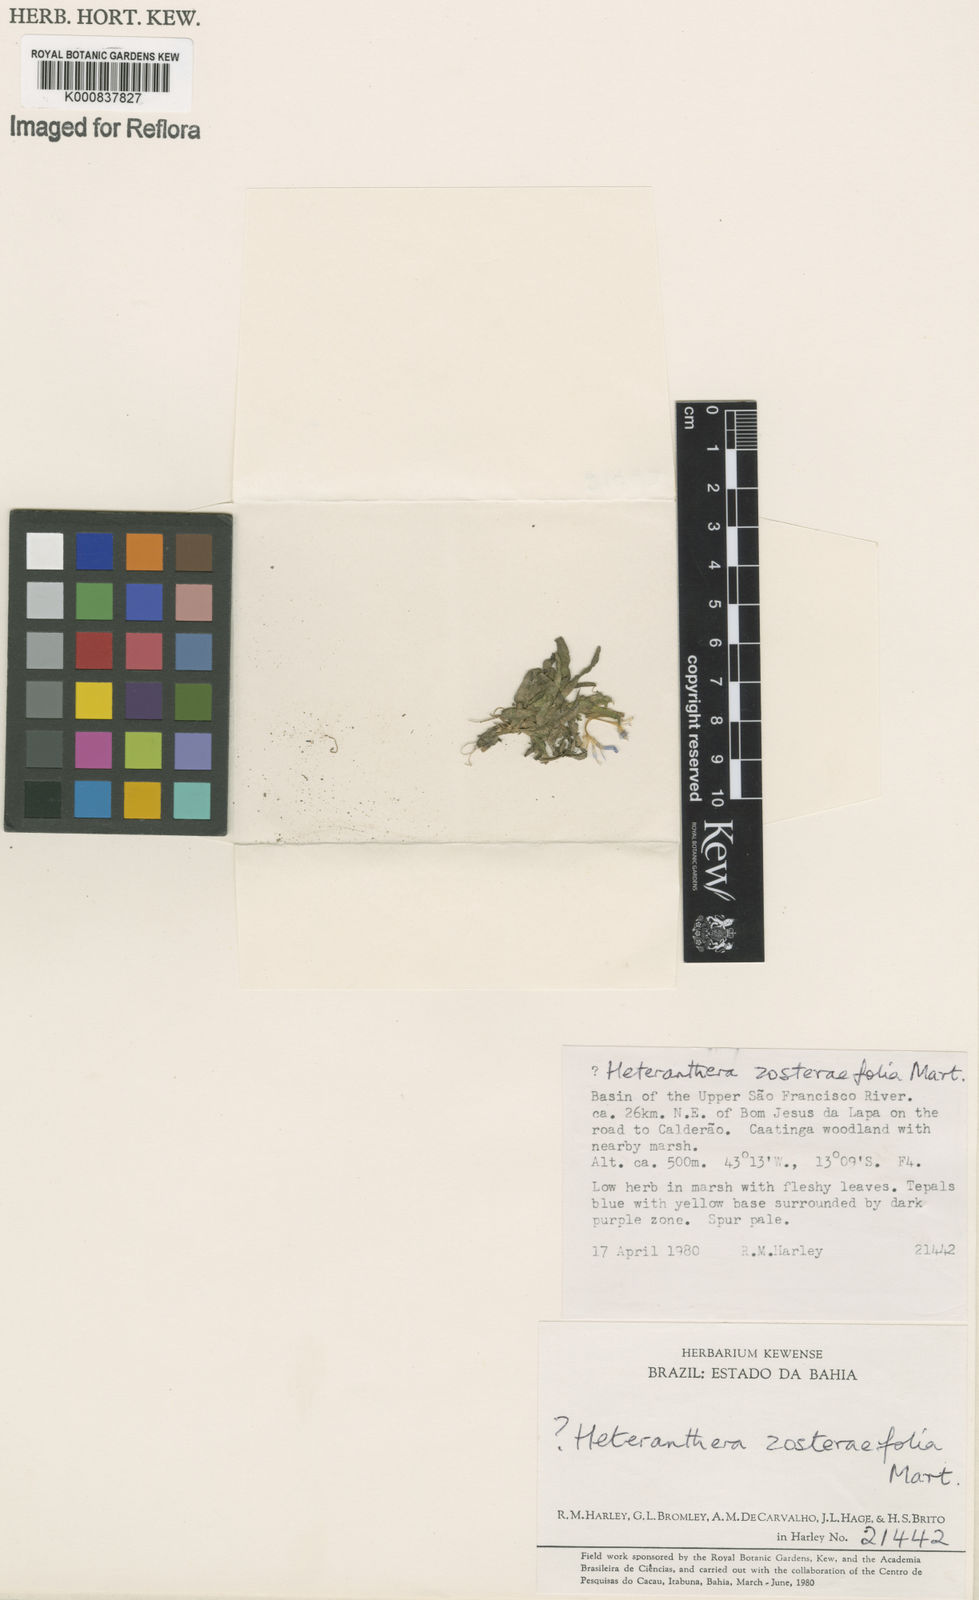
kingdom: Plantae
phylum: Tracheophyta
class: Liliopsida
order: Commelinales
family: Pontederiaceae
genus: Heteranthera
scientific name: Heteranthera zosterifolia
